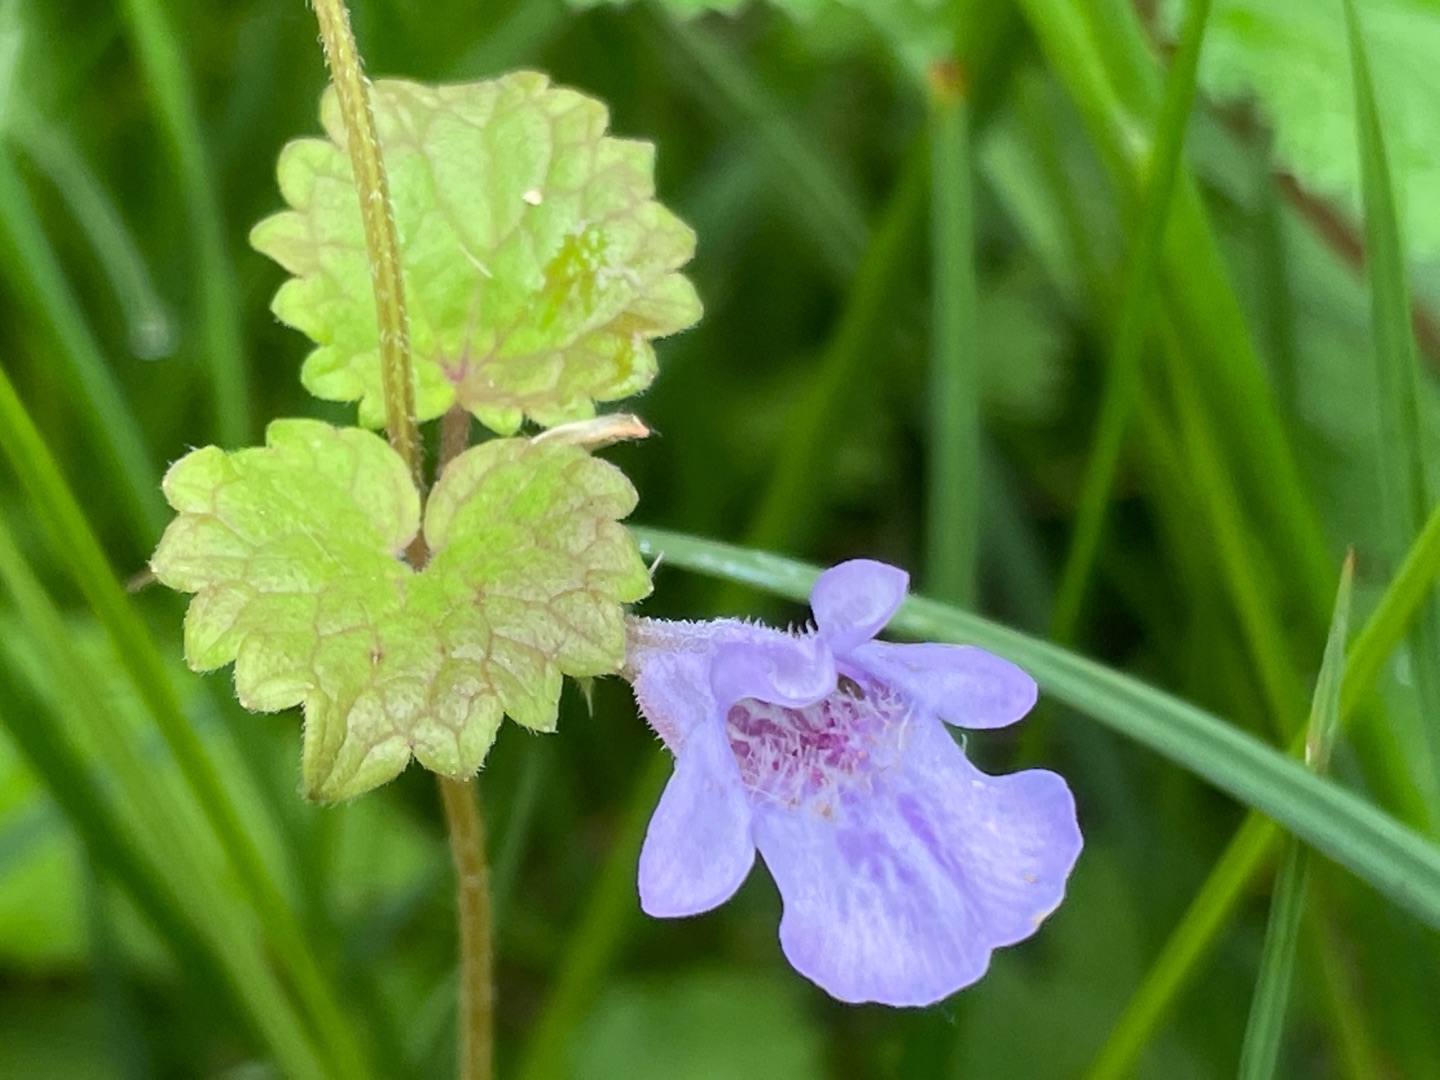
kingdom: Plantae
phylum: Tracheophyta
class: Magnoliopsida
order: Lamiales
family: Lamiaceae
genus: Glechoma
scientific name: Glechoma hederacea
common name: Korsknap
